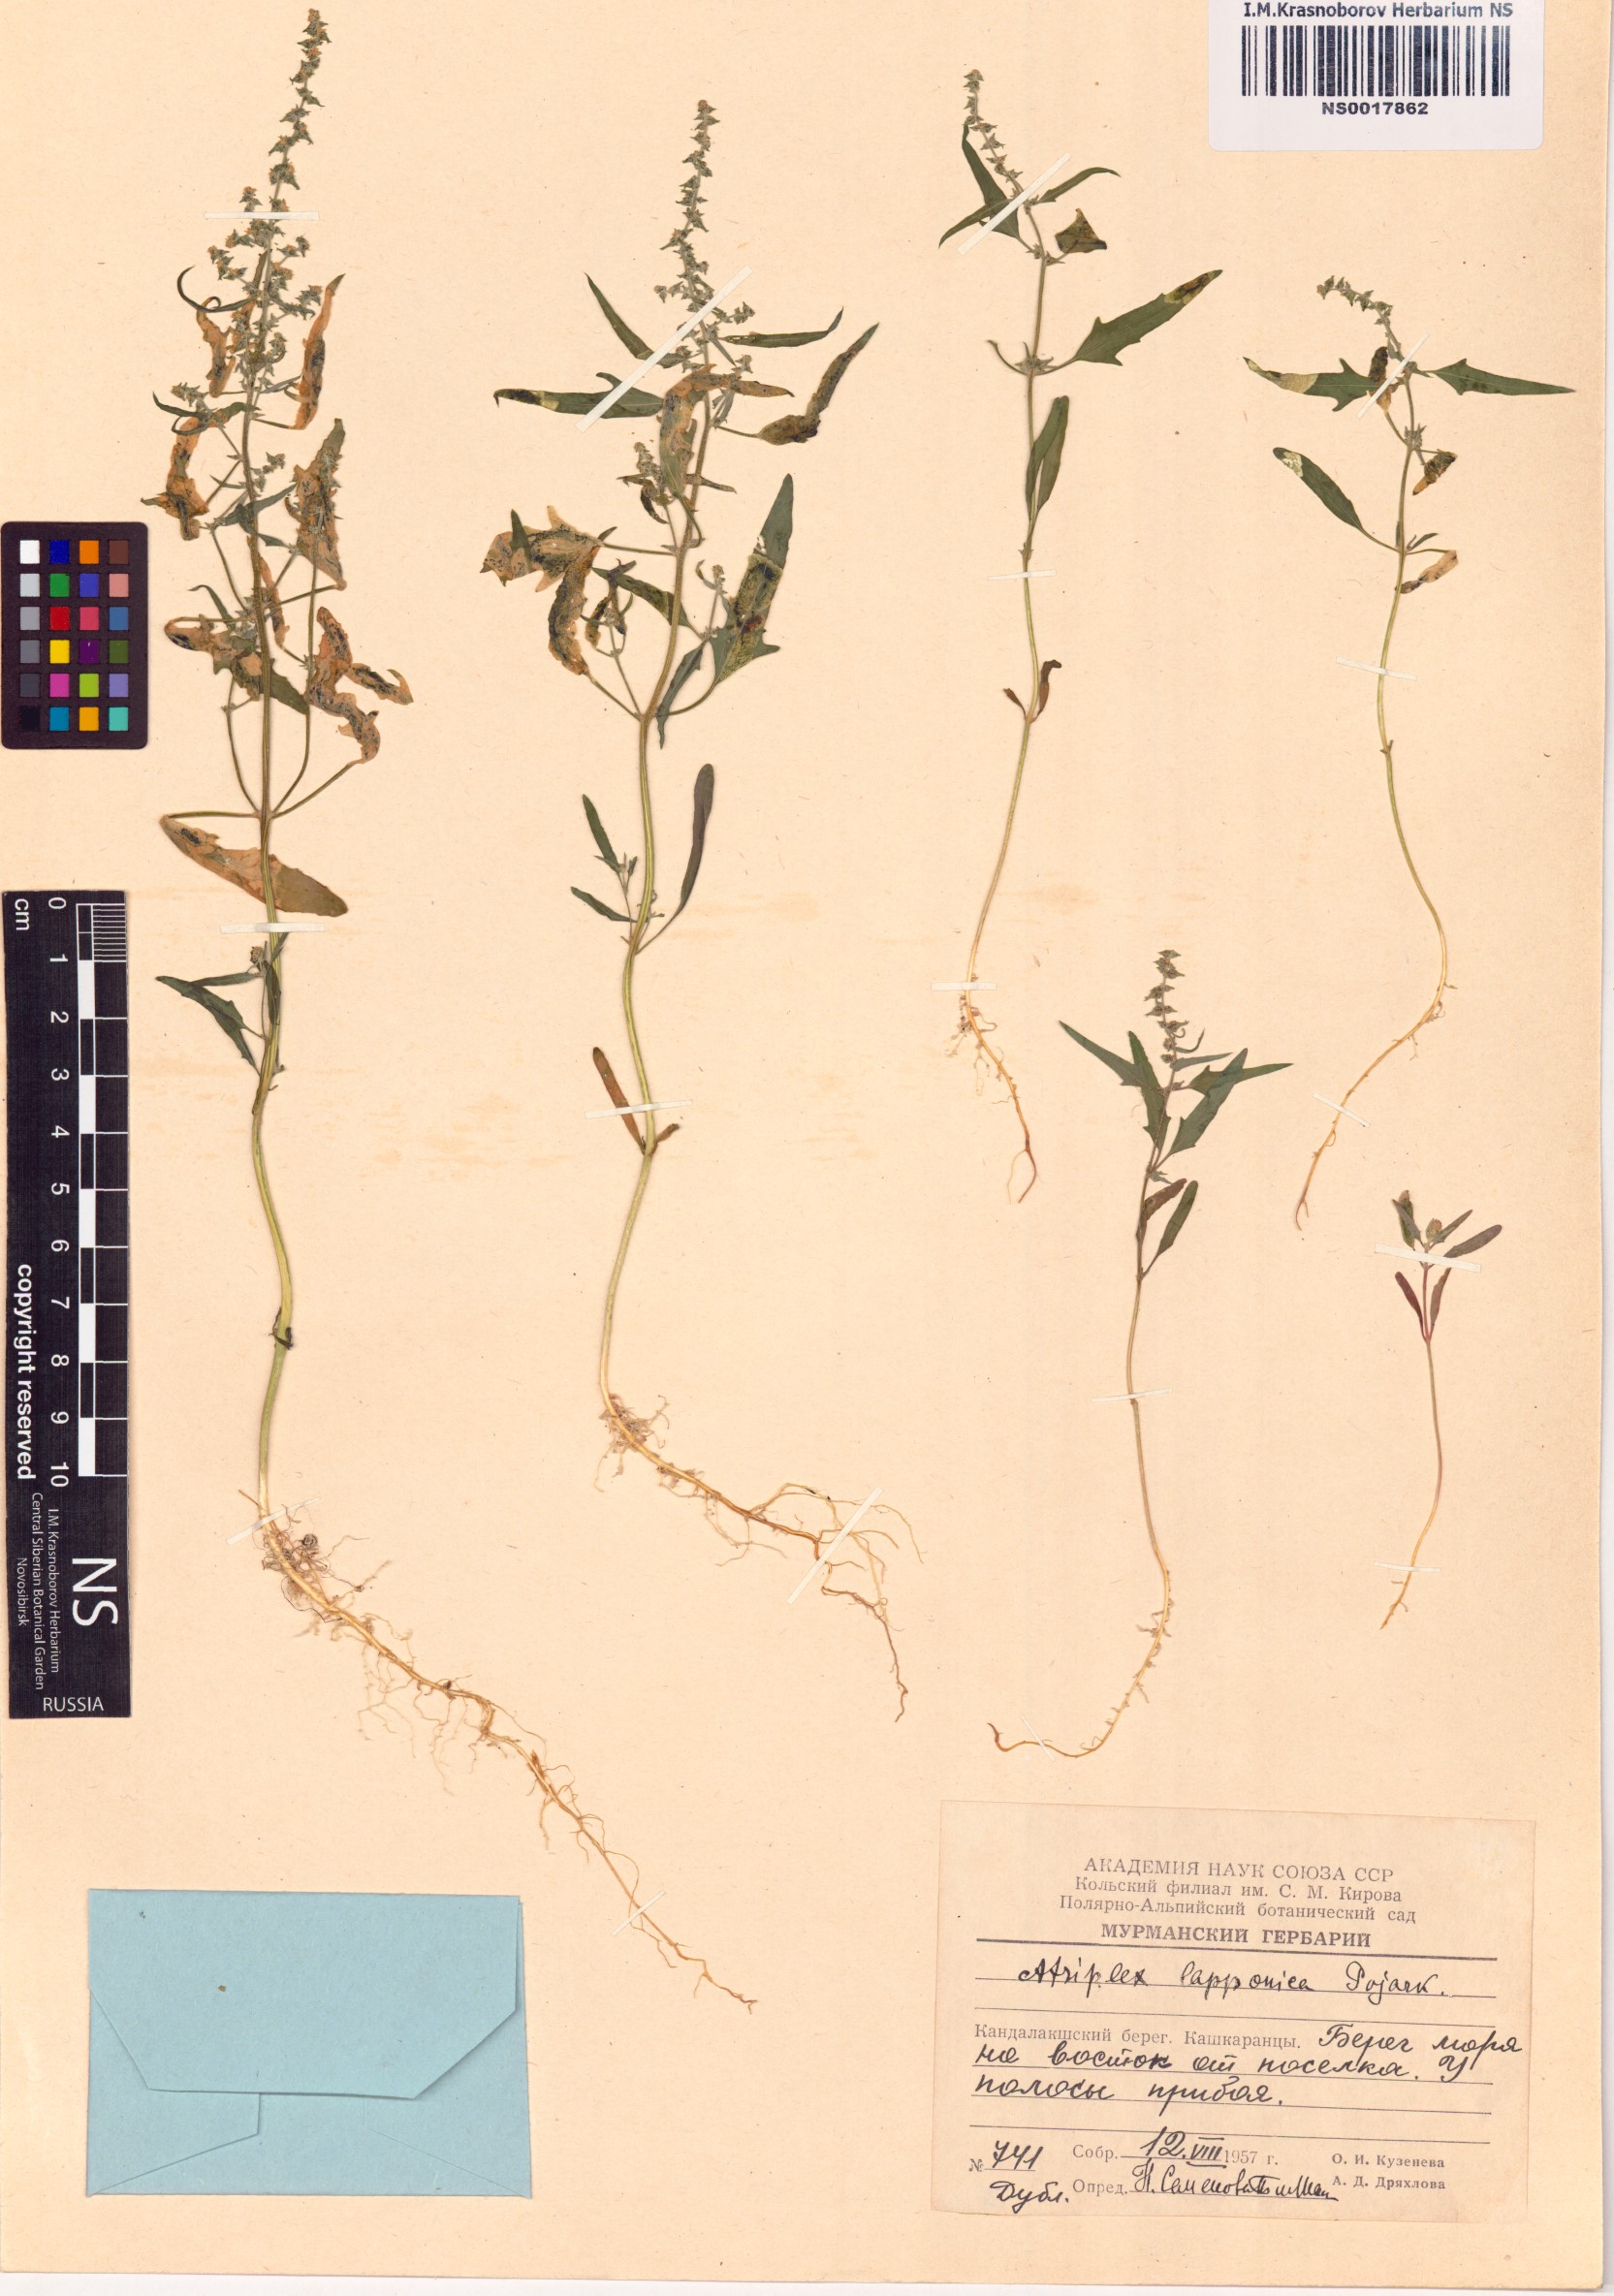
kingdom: Plantae
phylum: Tracheophyta
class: Magnoliopsida
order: Caryophyllales
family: Amaranthaceae
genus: Atriplex
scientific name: Atriplex nudicaulis
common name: Baltic orache
